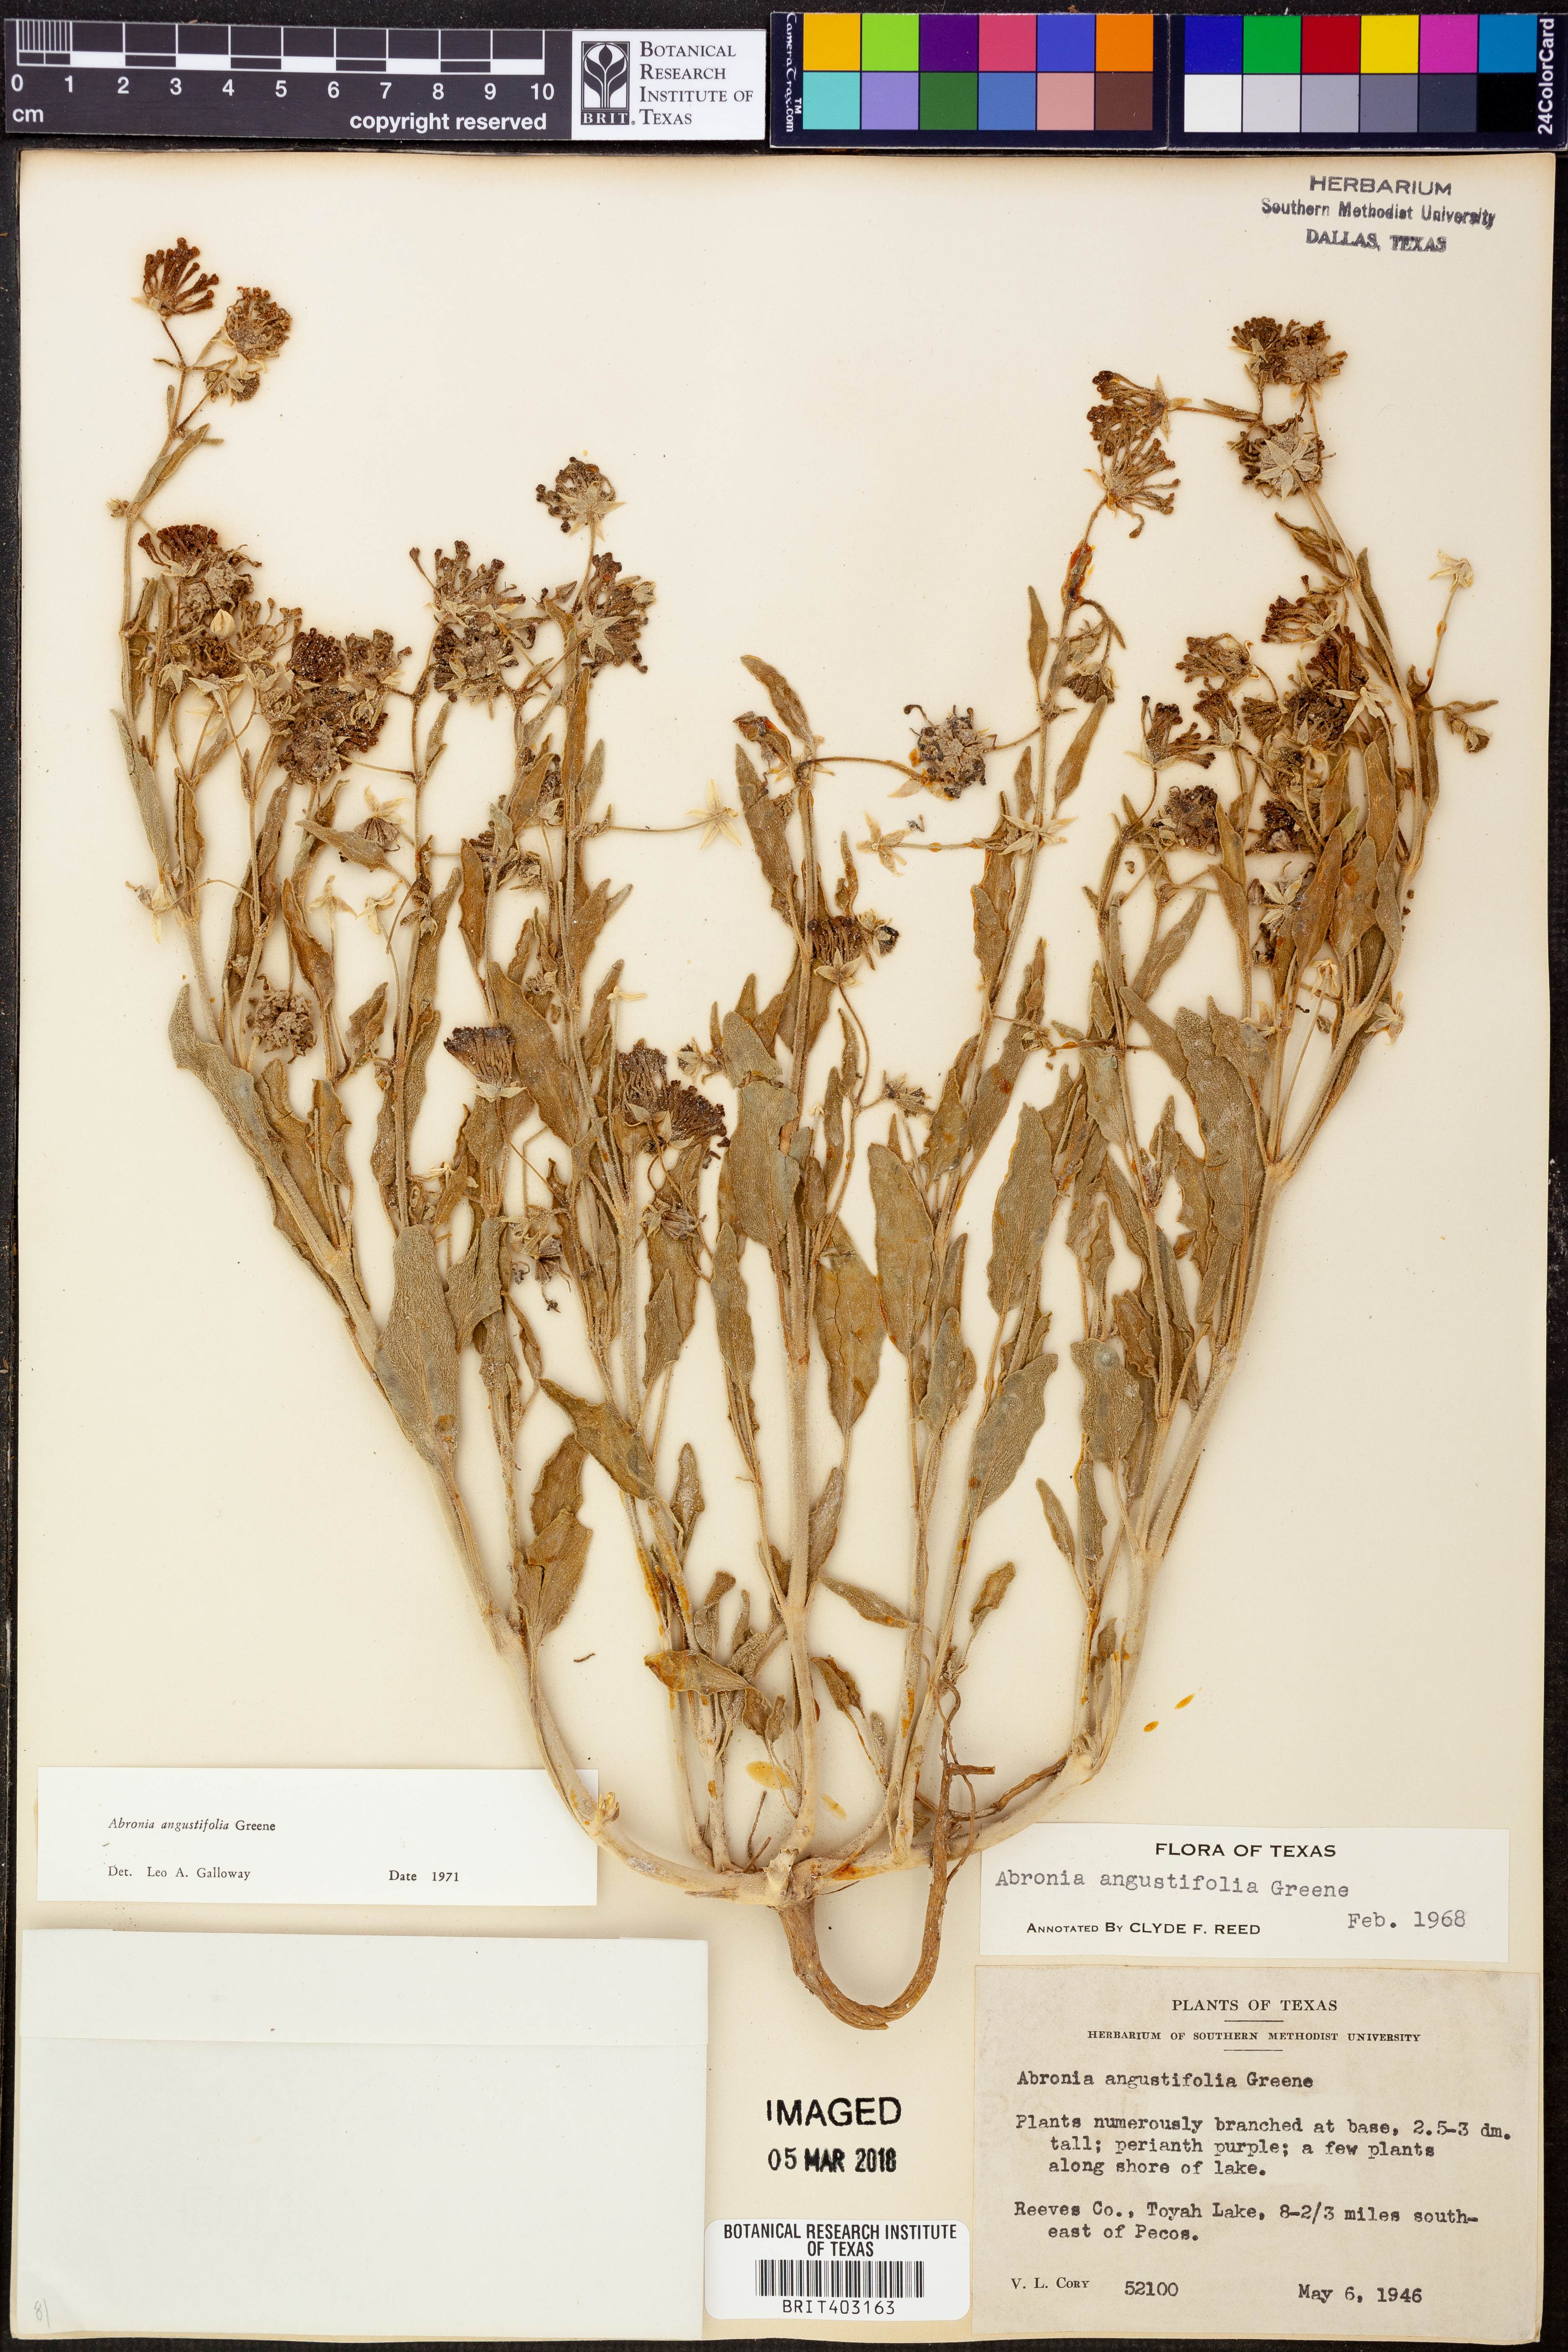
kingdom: Plantae
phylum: Tracheophyta
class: Magnoliopsida
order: Caryophyllales
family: Nyctaginaceae
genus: Abronia
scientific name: Abronia angustifolia
